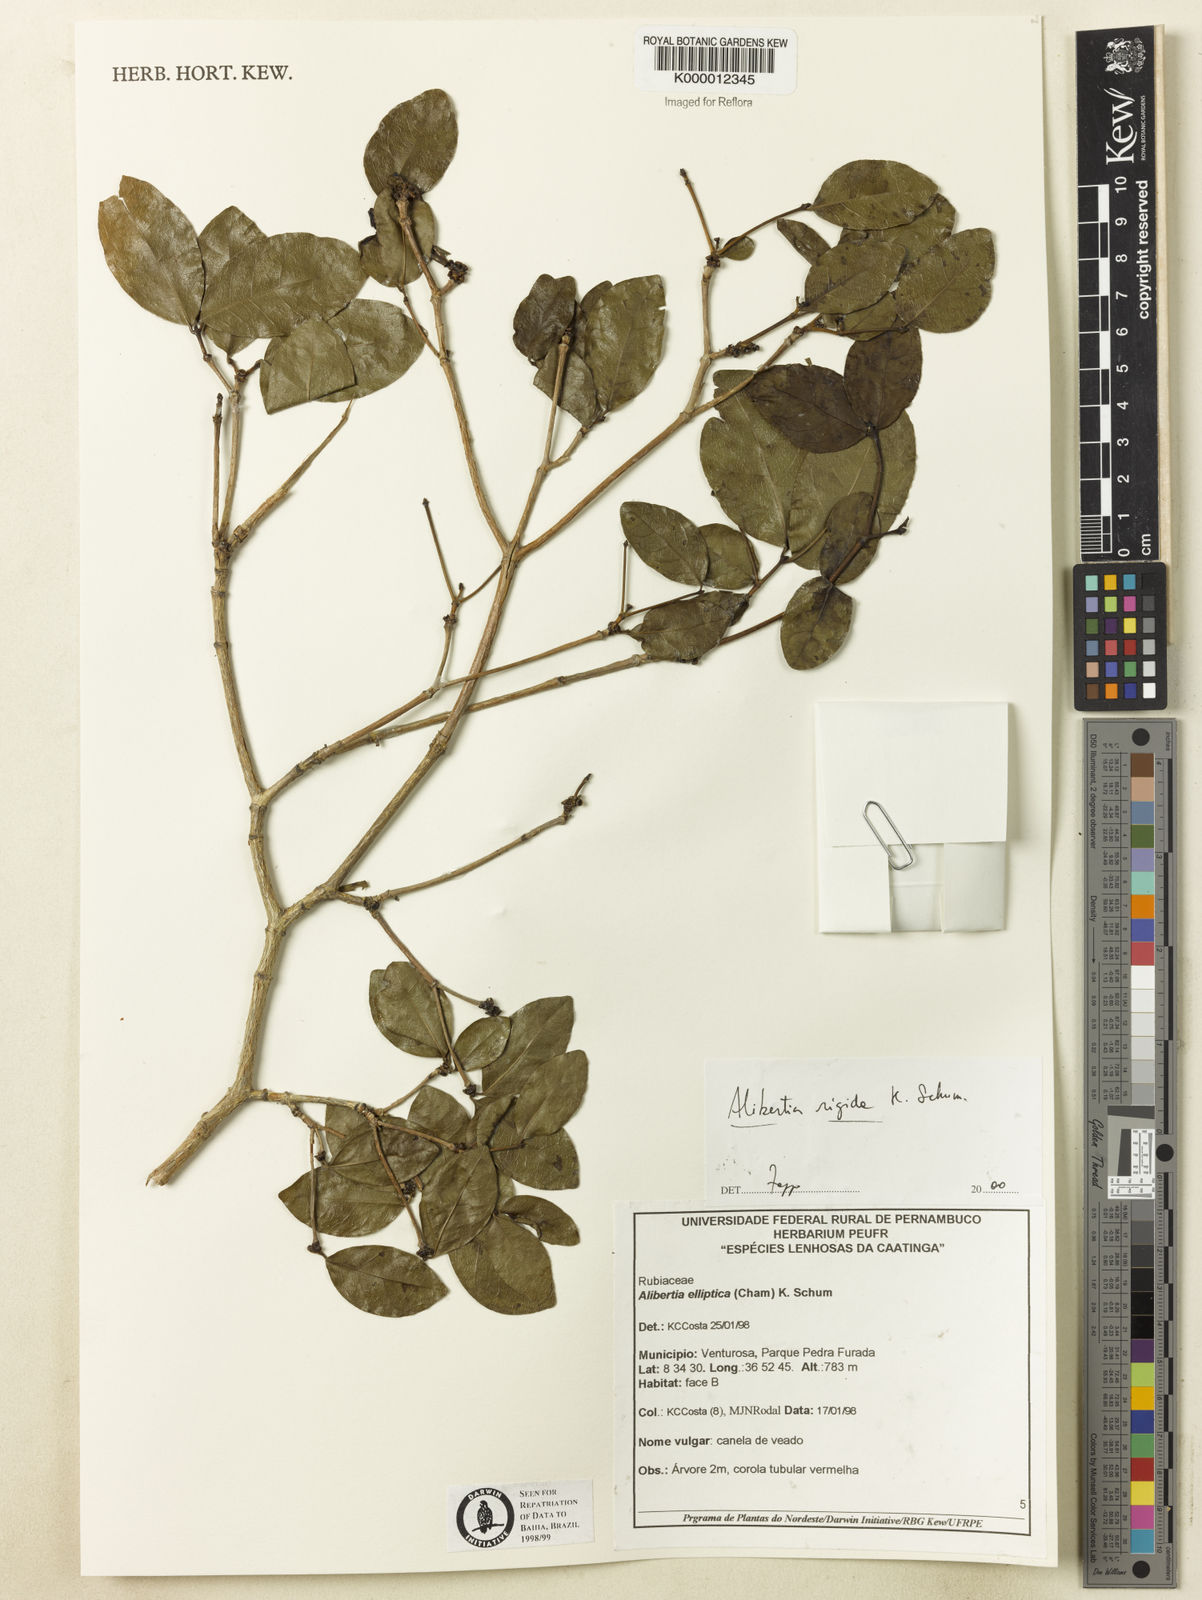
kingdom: Plantae
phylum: Tracheophyta
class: Magnoliopsida
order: Gentianales
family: Rubiaceae
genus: Cordiera
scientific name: Cordiera rigida
